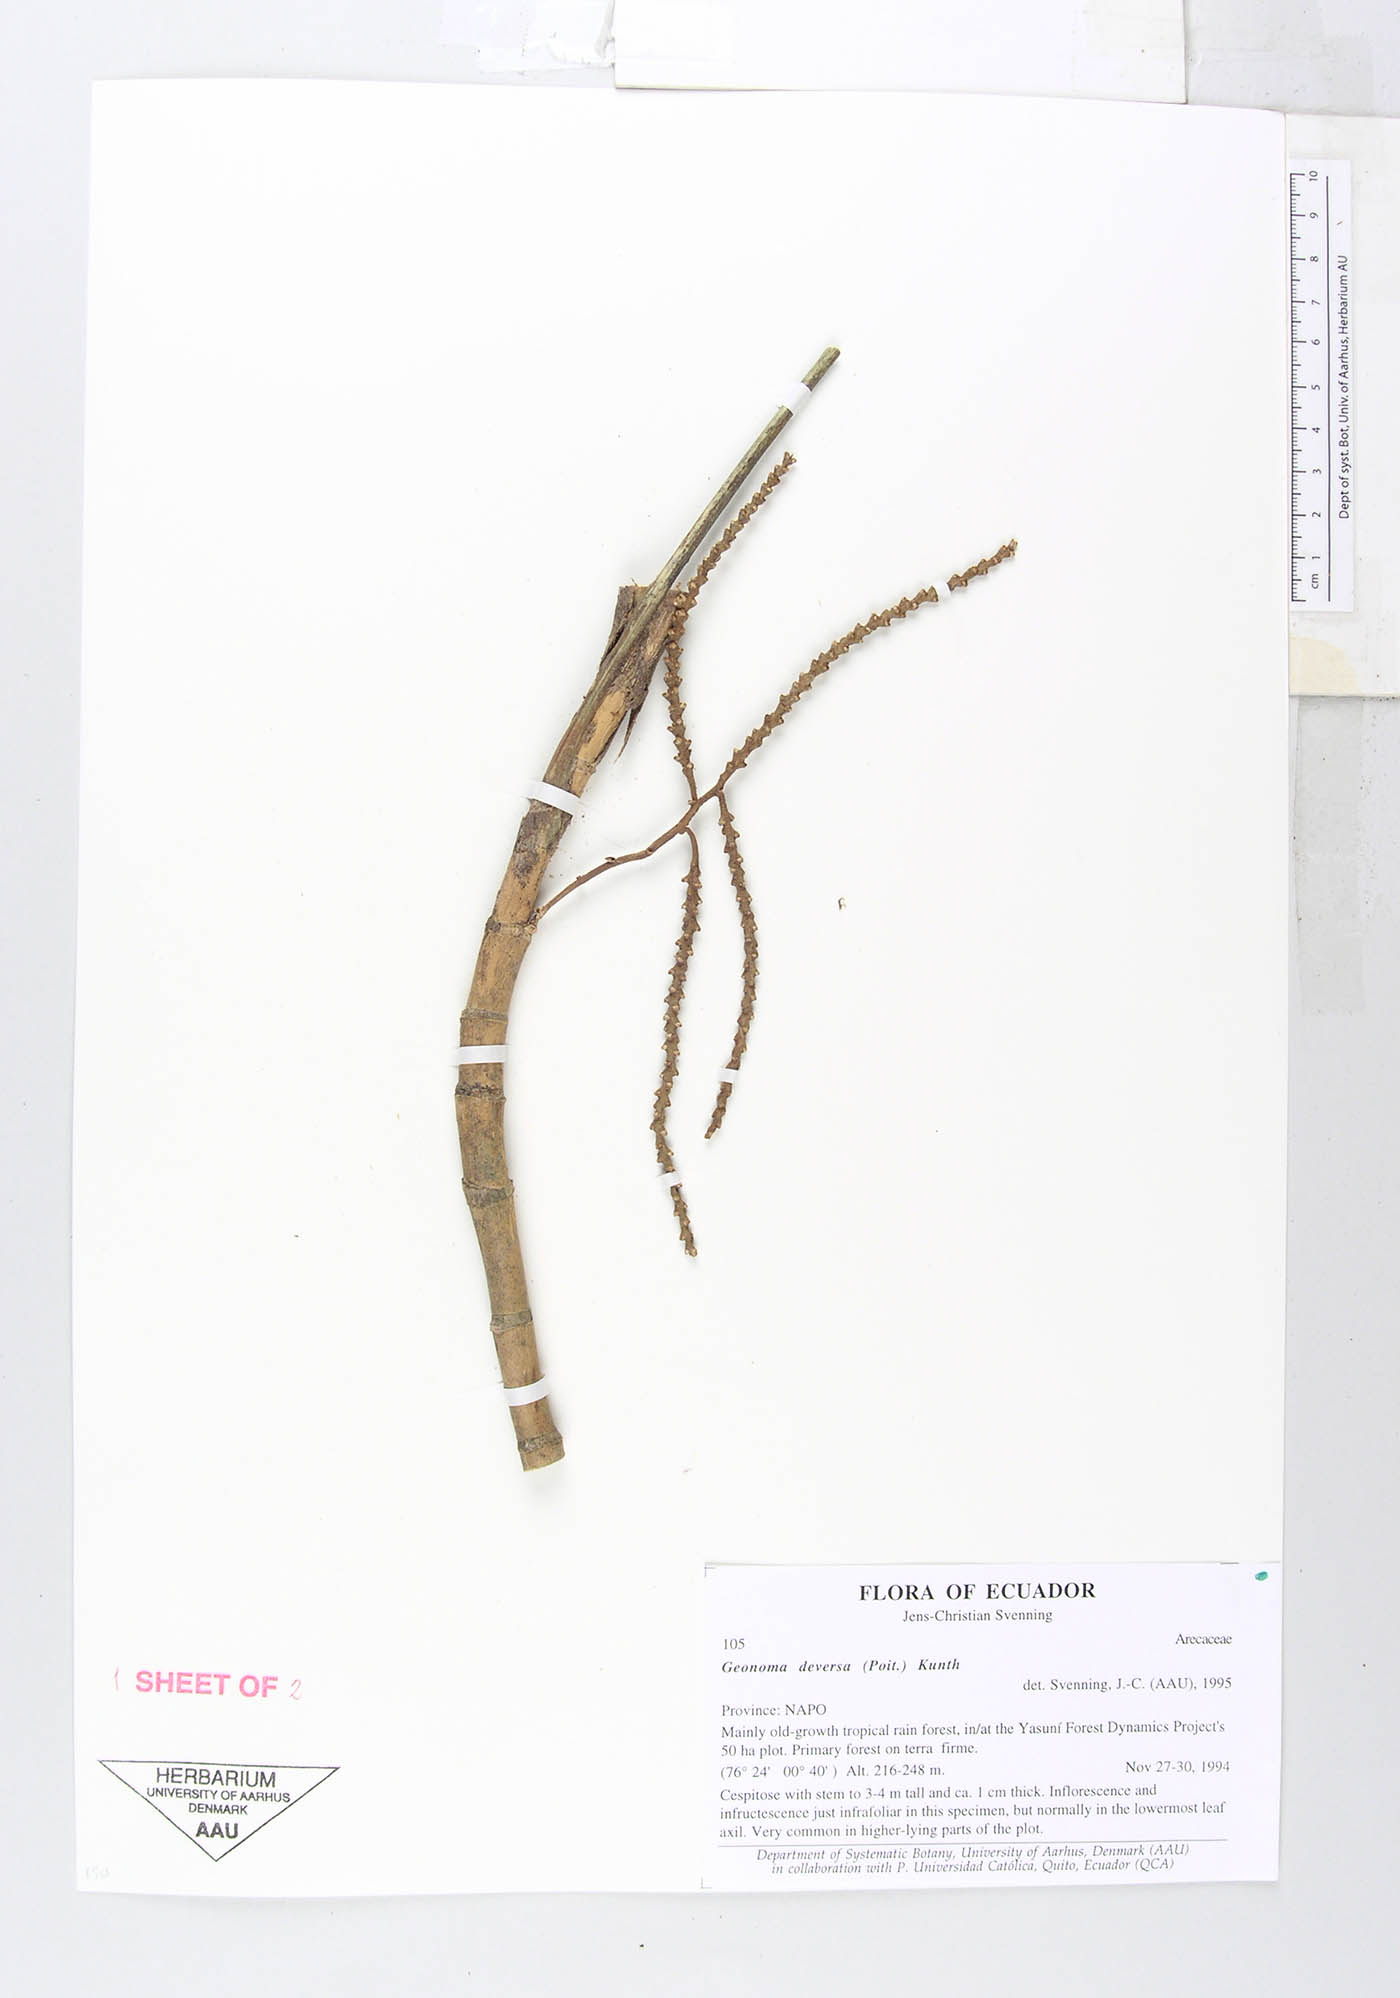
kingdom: Plantae
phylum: Tracheophyta
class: Liliopsida
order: Arecales
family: Arecaceae
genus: Geonoma
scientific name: Geonoma stricta
